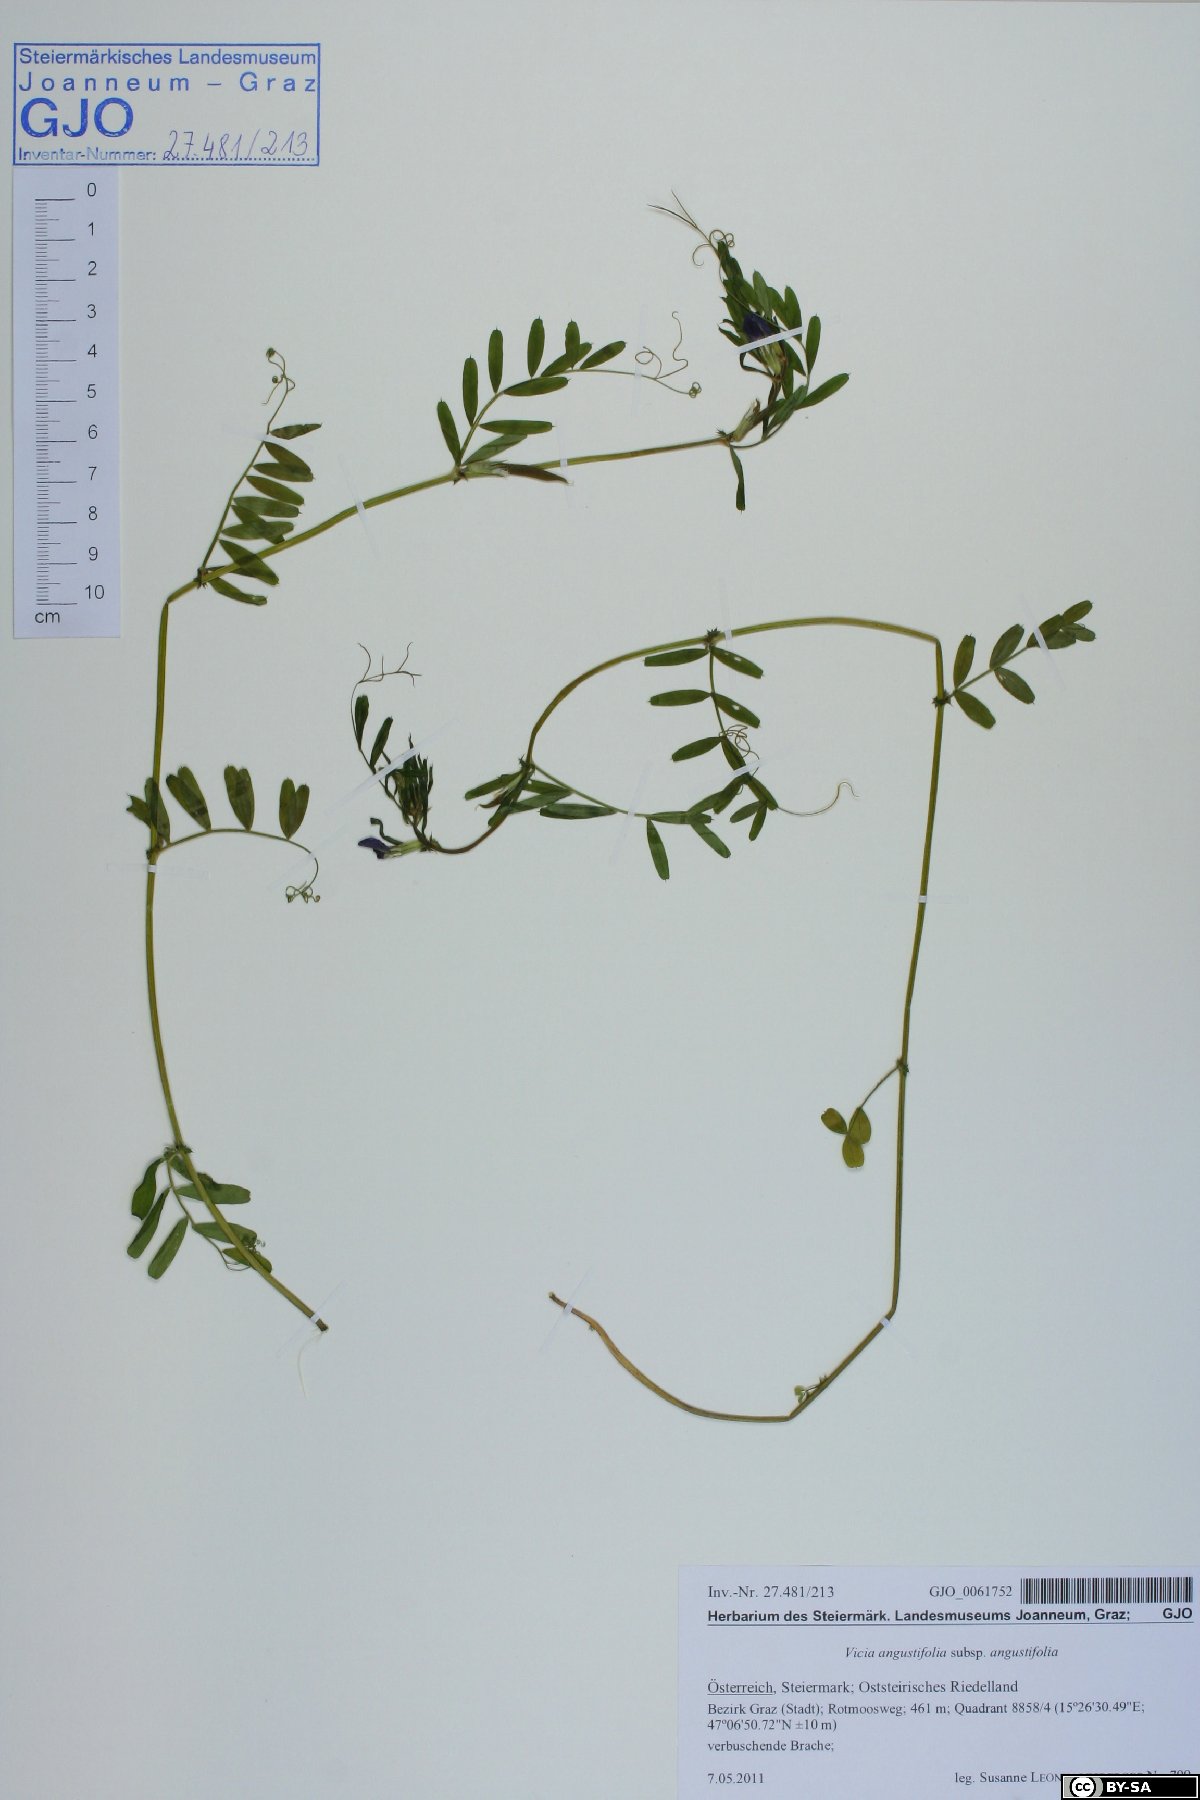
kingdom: Plantae
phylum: Tracheophyta
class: Magnoliopsida
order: Fabales
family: Fabaceae
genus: Vicia
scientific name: Vicia sativa
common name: Garden vetch
